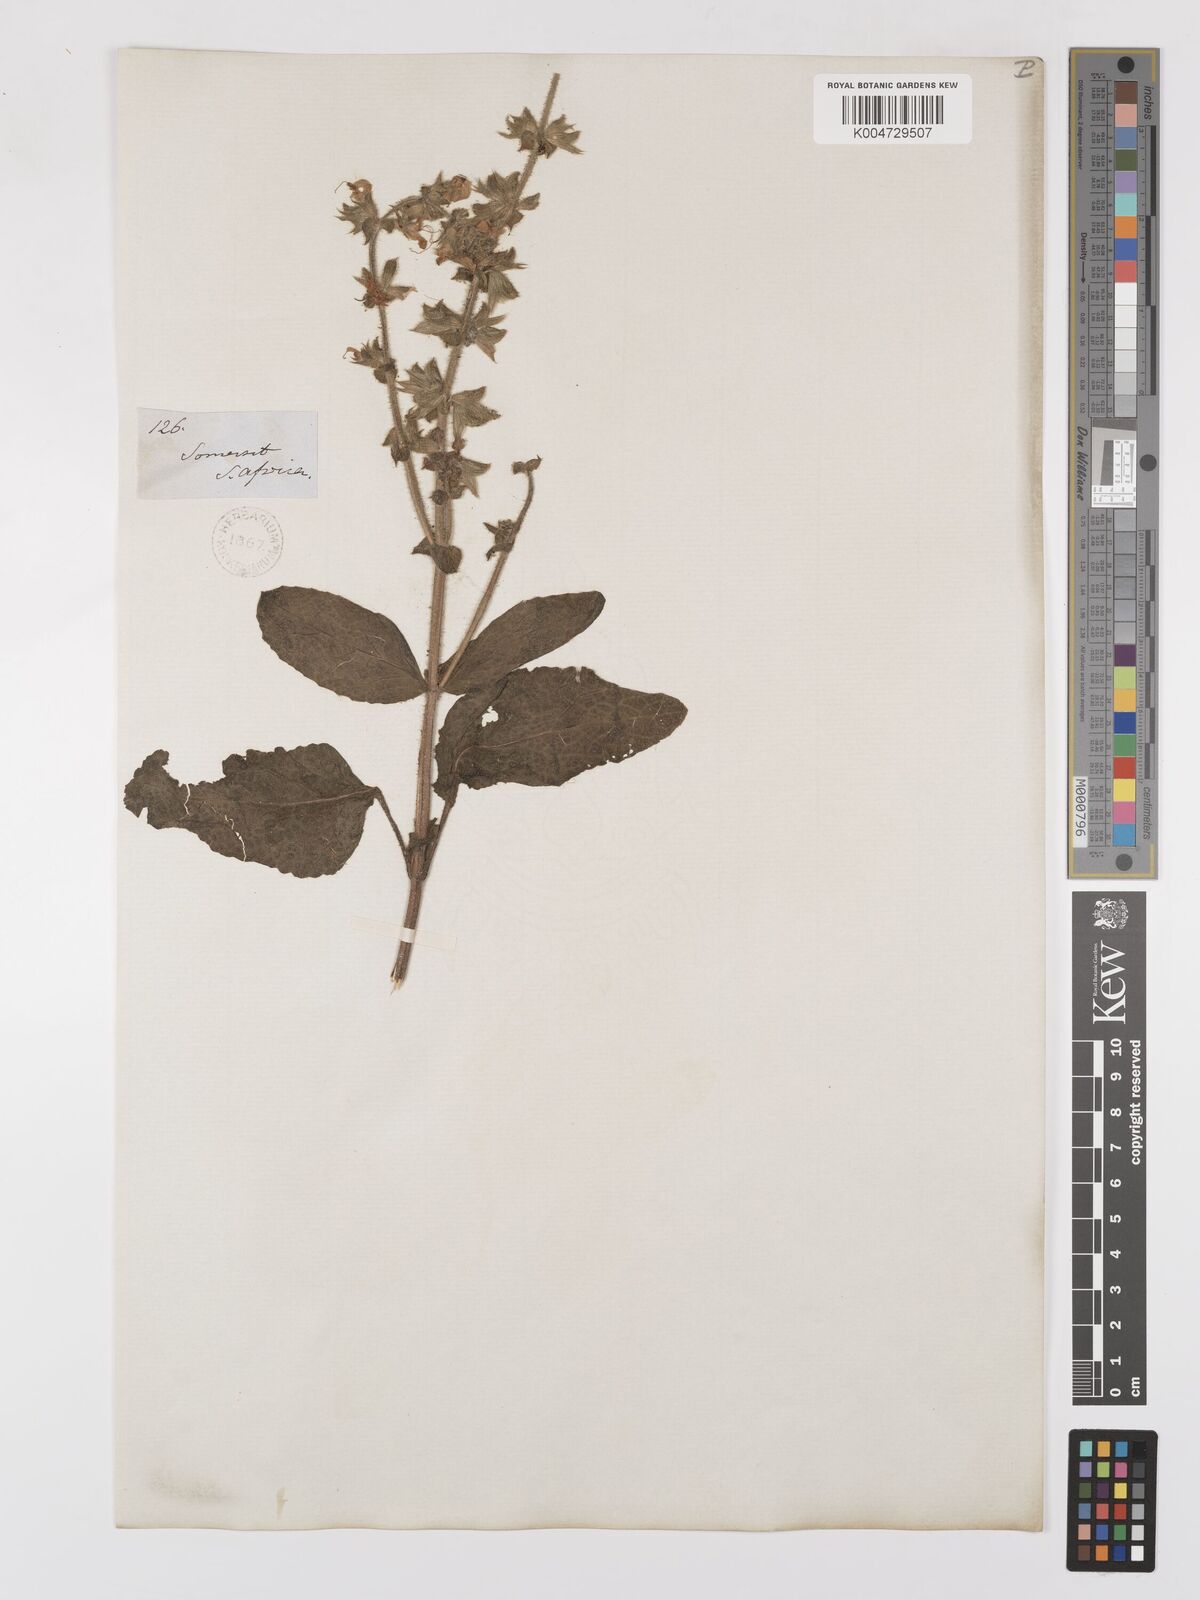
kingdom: Plantae
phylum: Tracheophyta
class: Magnoliopsida
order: Lamiales
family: Lamiaceae
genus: Salvia
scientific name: Salvia
